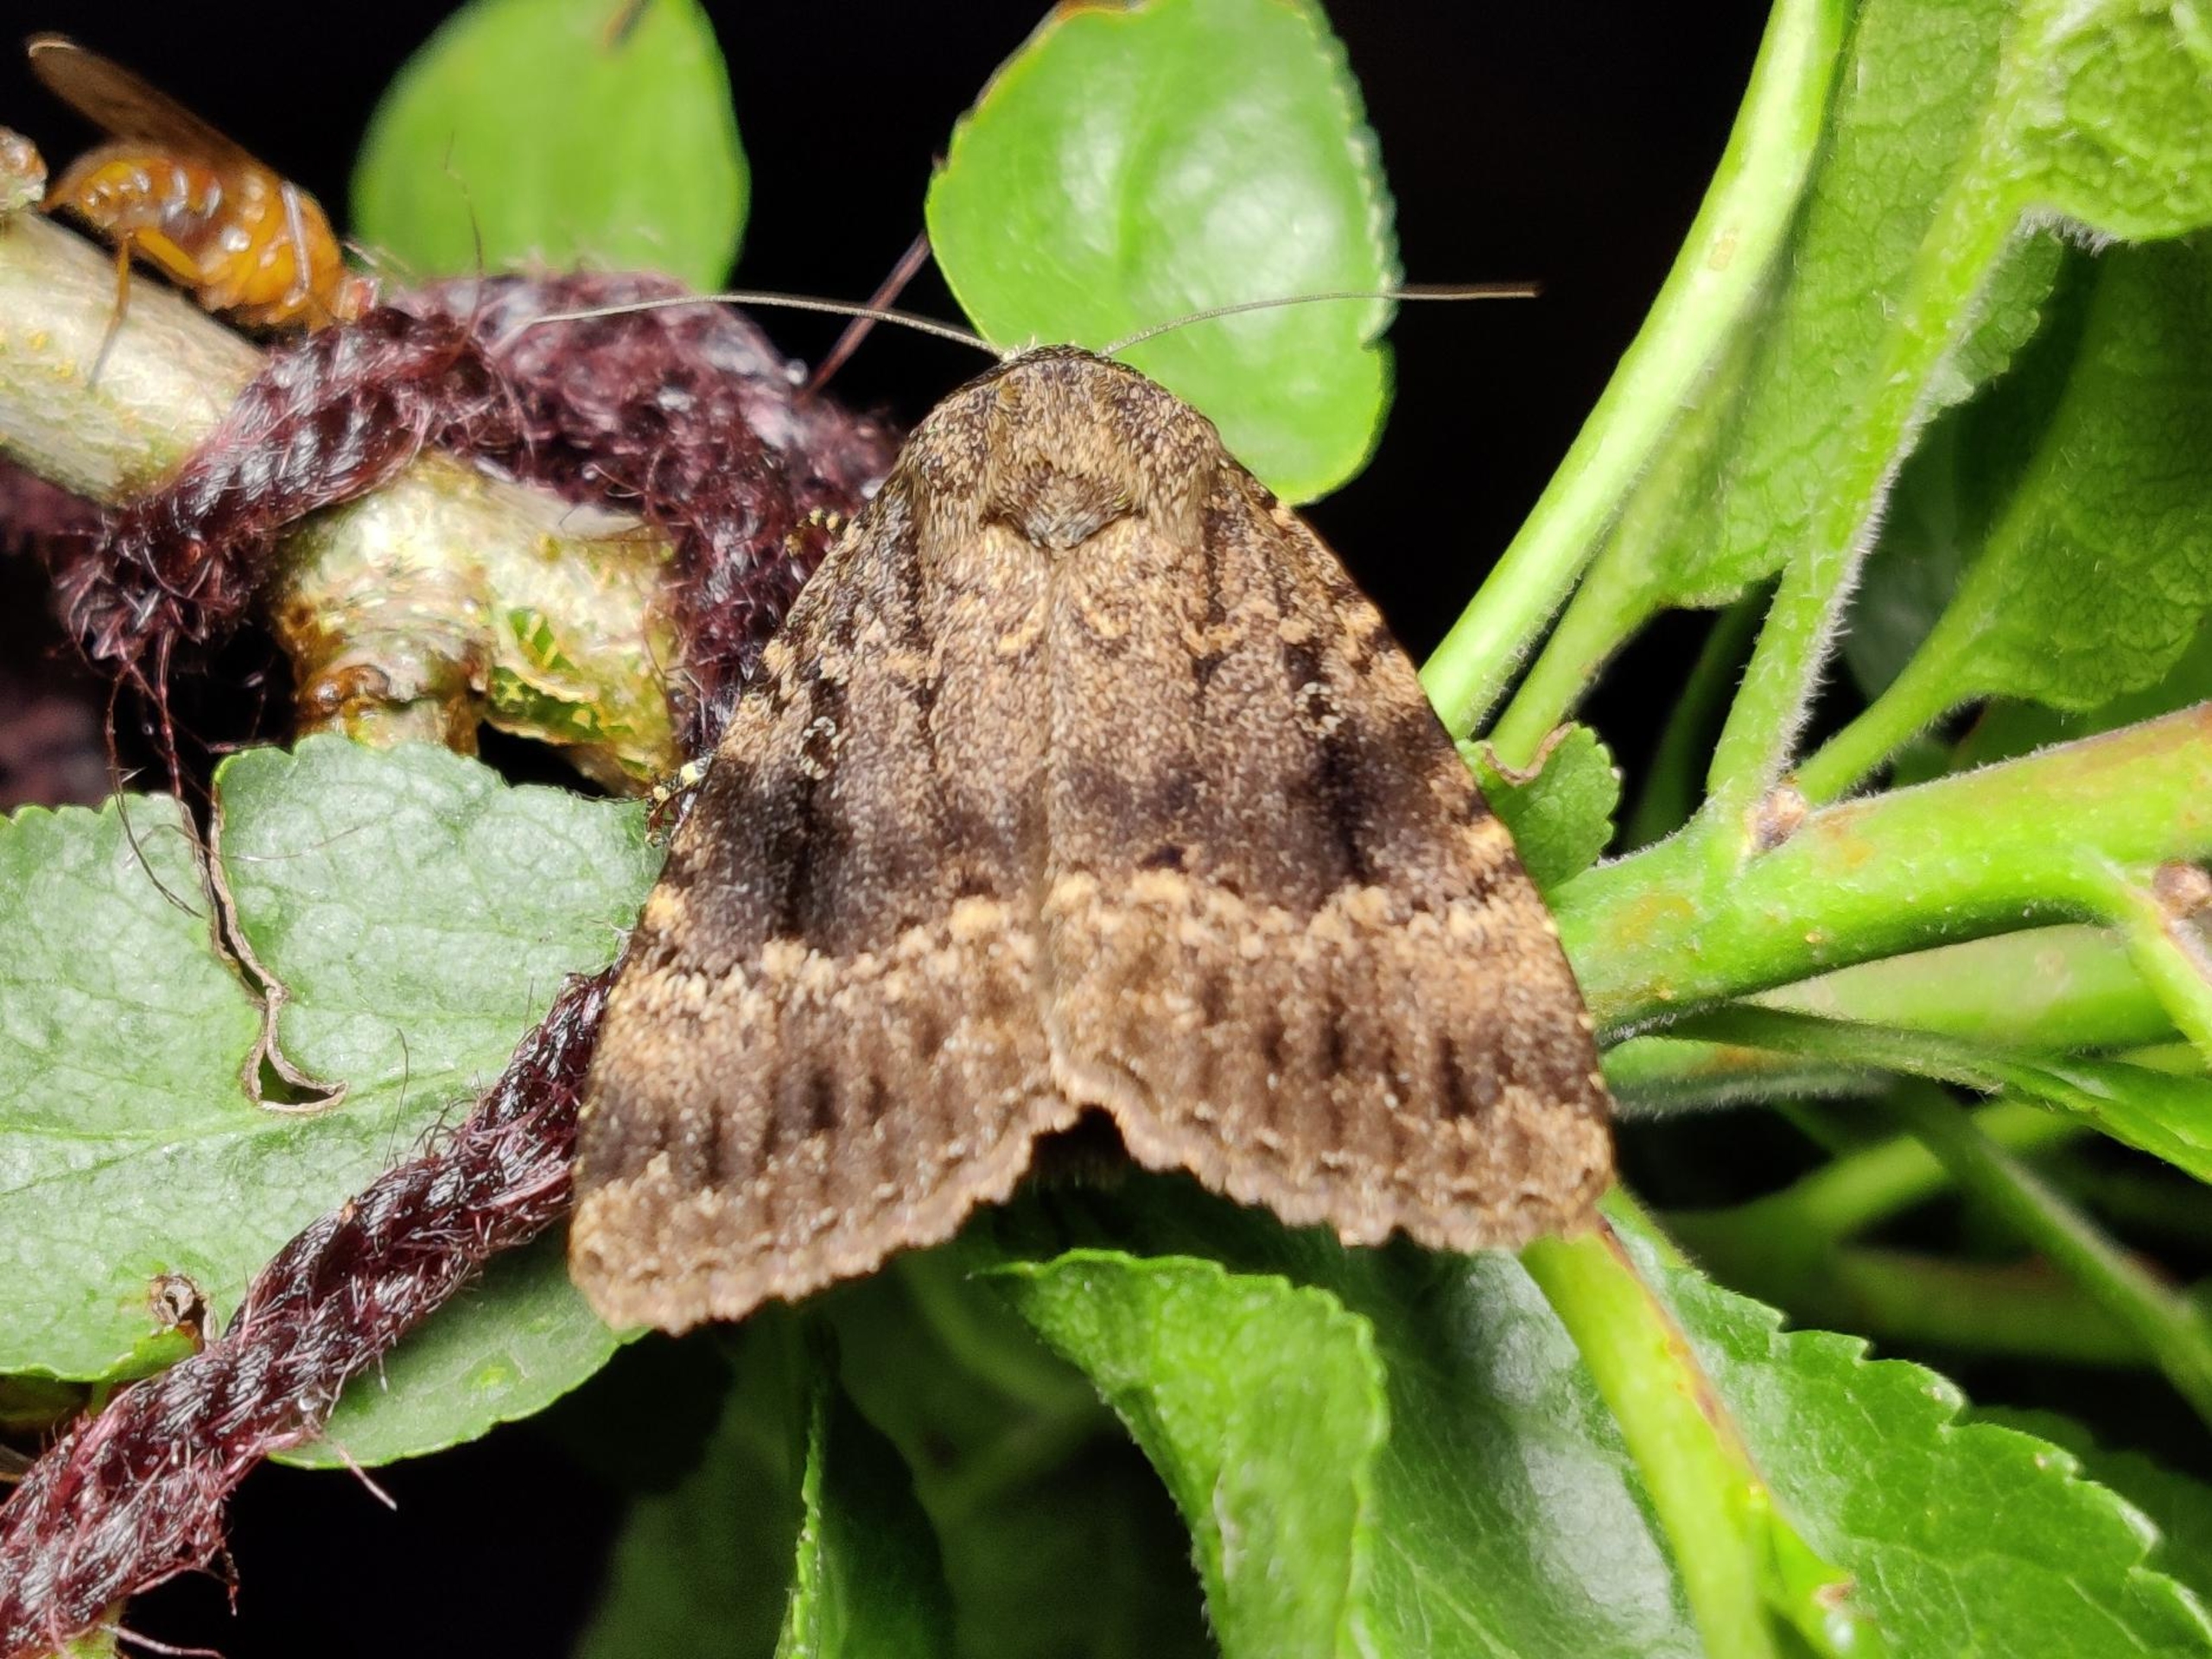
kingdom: Animalia
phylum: Arthropoda
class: Insecta
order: Lepidoptera
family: Noctuidae
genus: Amphipyra
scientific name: Amphipyra pyramidea
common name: Pyramideugle
